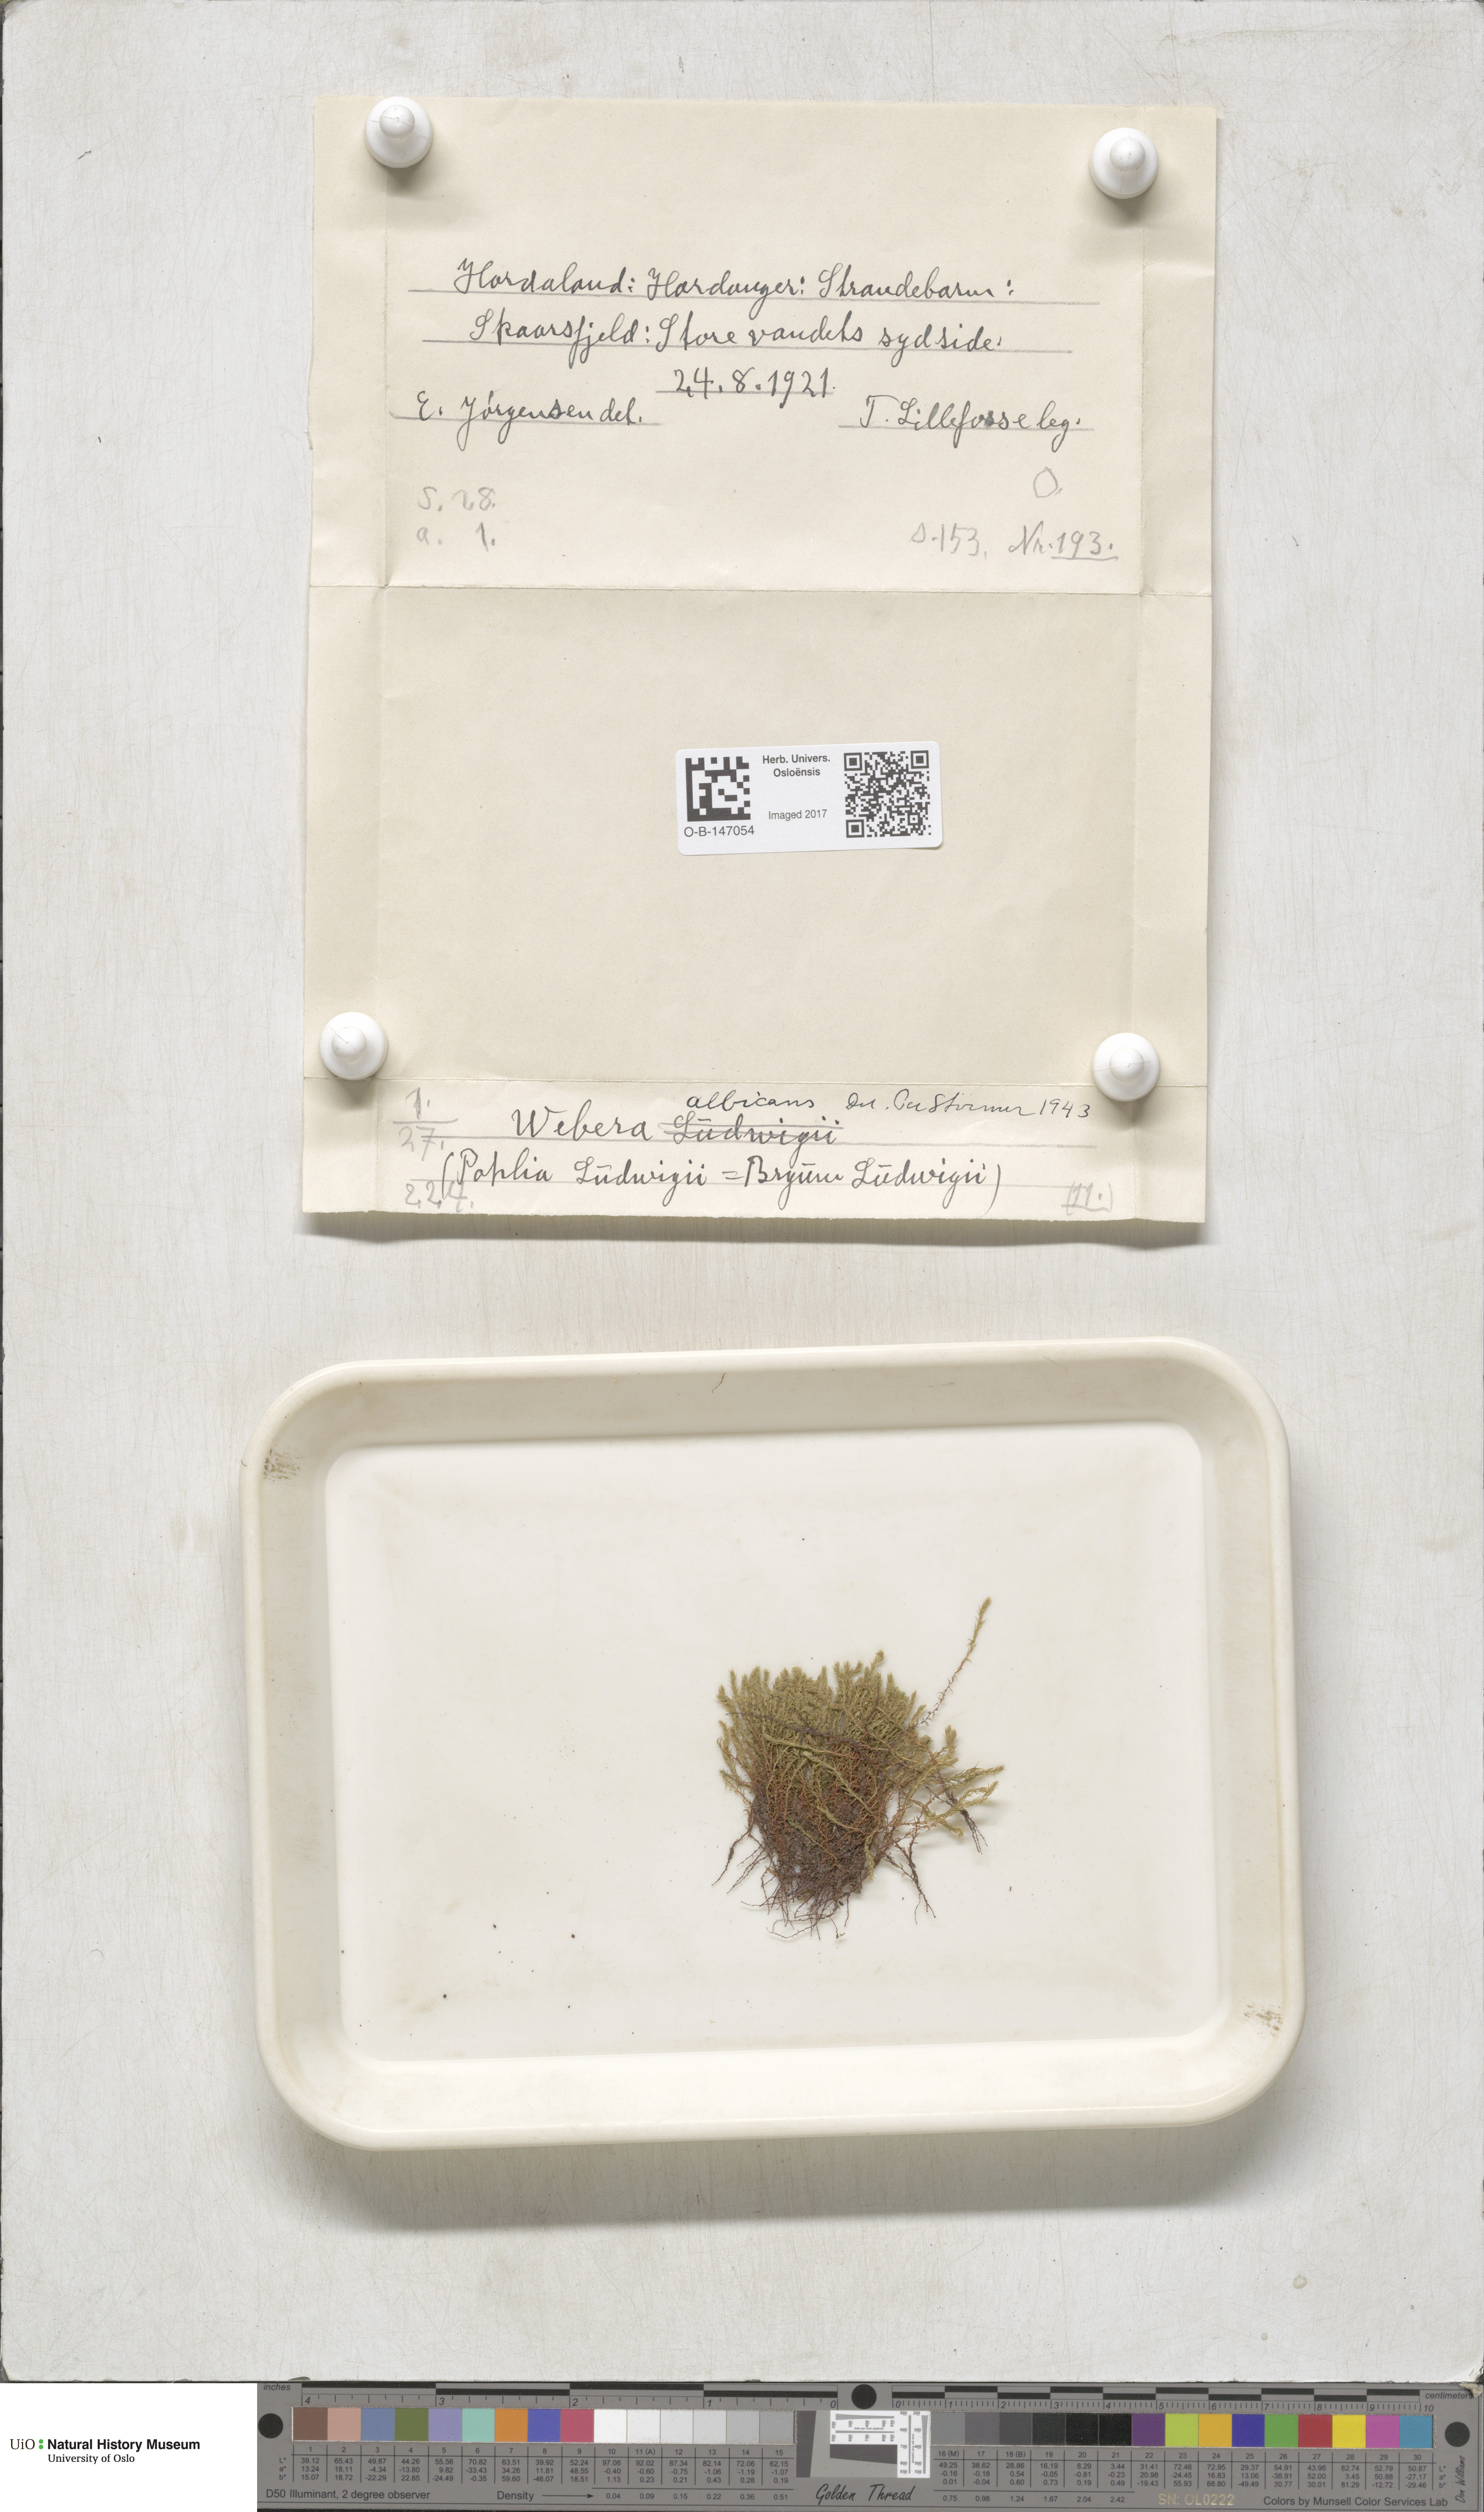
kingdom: Plantae
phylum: Bryophyta
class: Bryopsida
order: Bryales
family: Mniaceae
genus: Pohlia
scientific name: Pohlia wahlenbergii
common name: Wahlenberg's nodding moss
